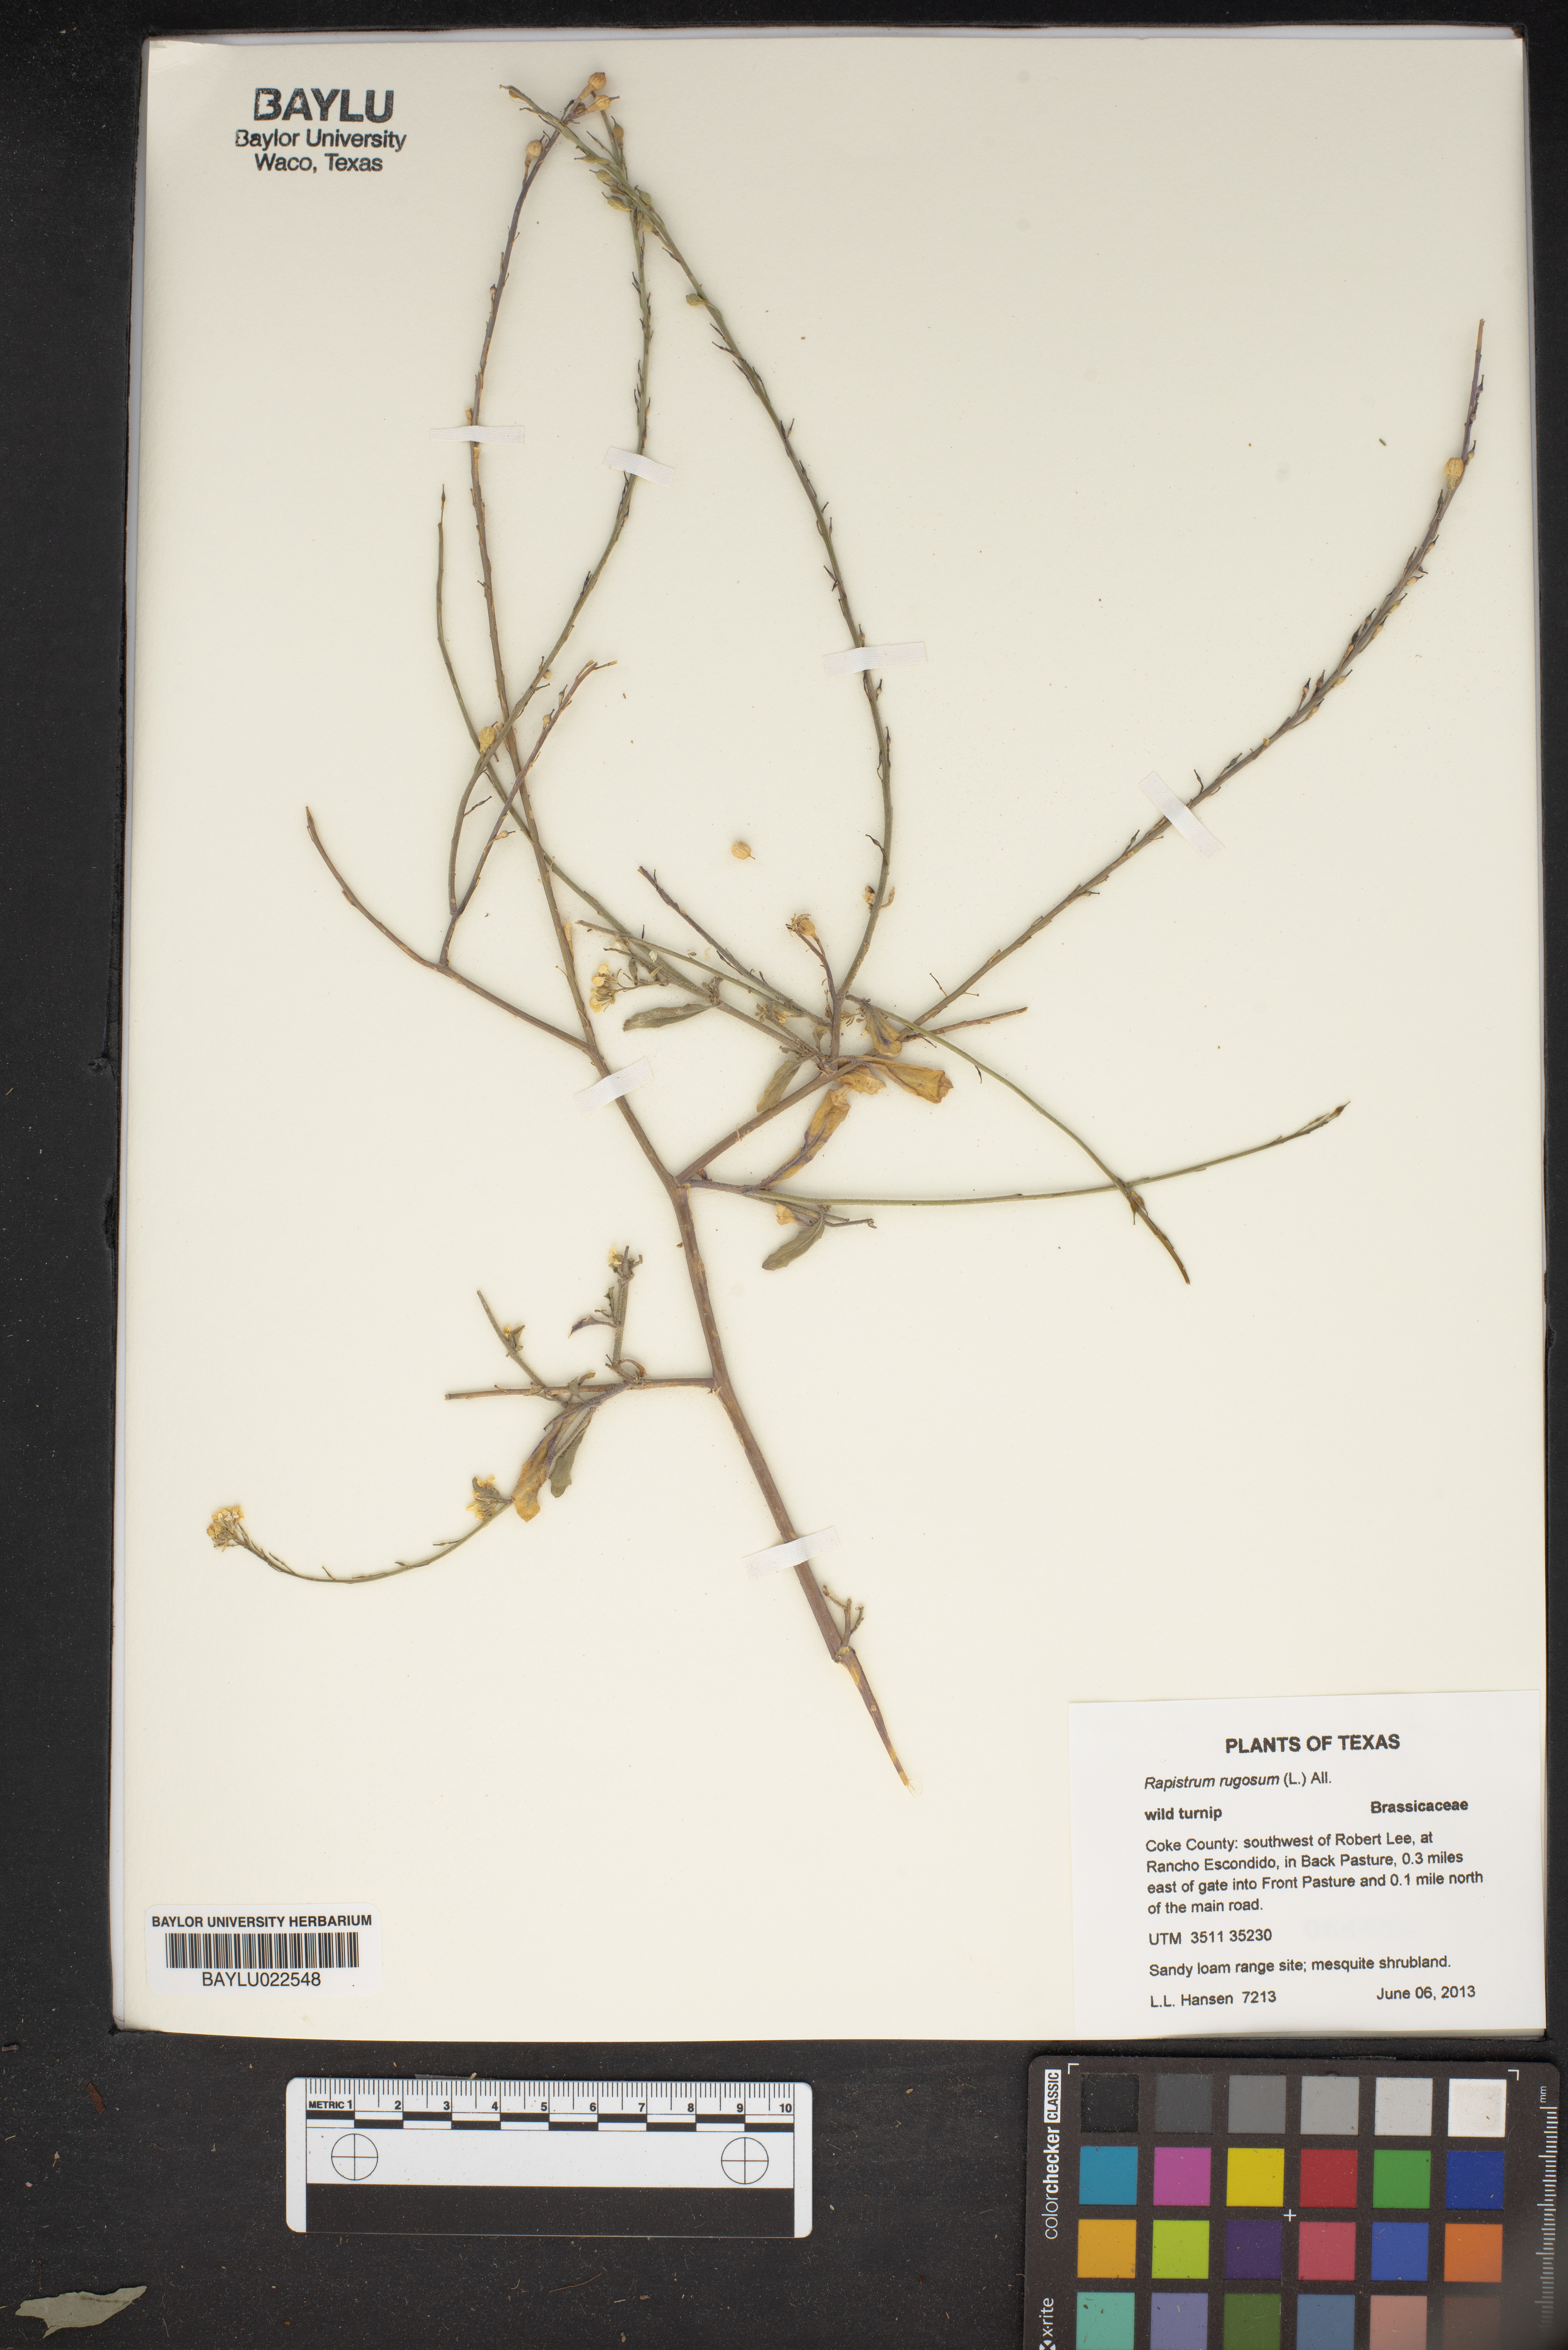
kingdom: Plantae
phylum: Tracheophyta
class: Magnoliopsida
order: Brassicales
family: Brassicaceae
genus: Rapistrum
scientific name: Rapistrum rugosum
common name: Annual bastardcabbage
